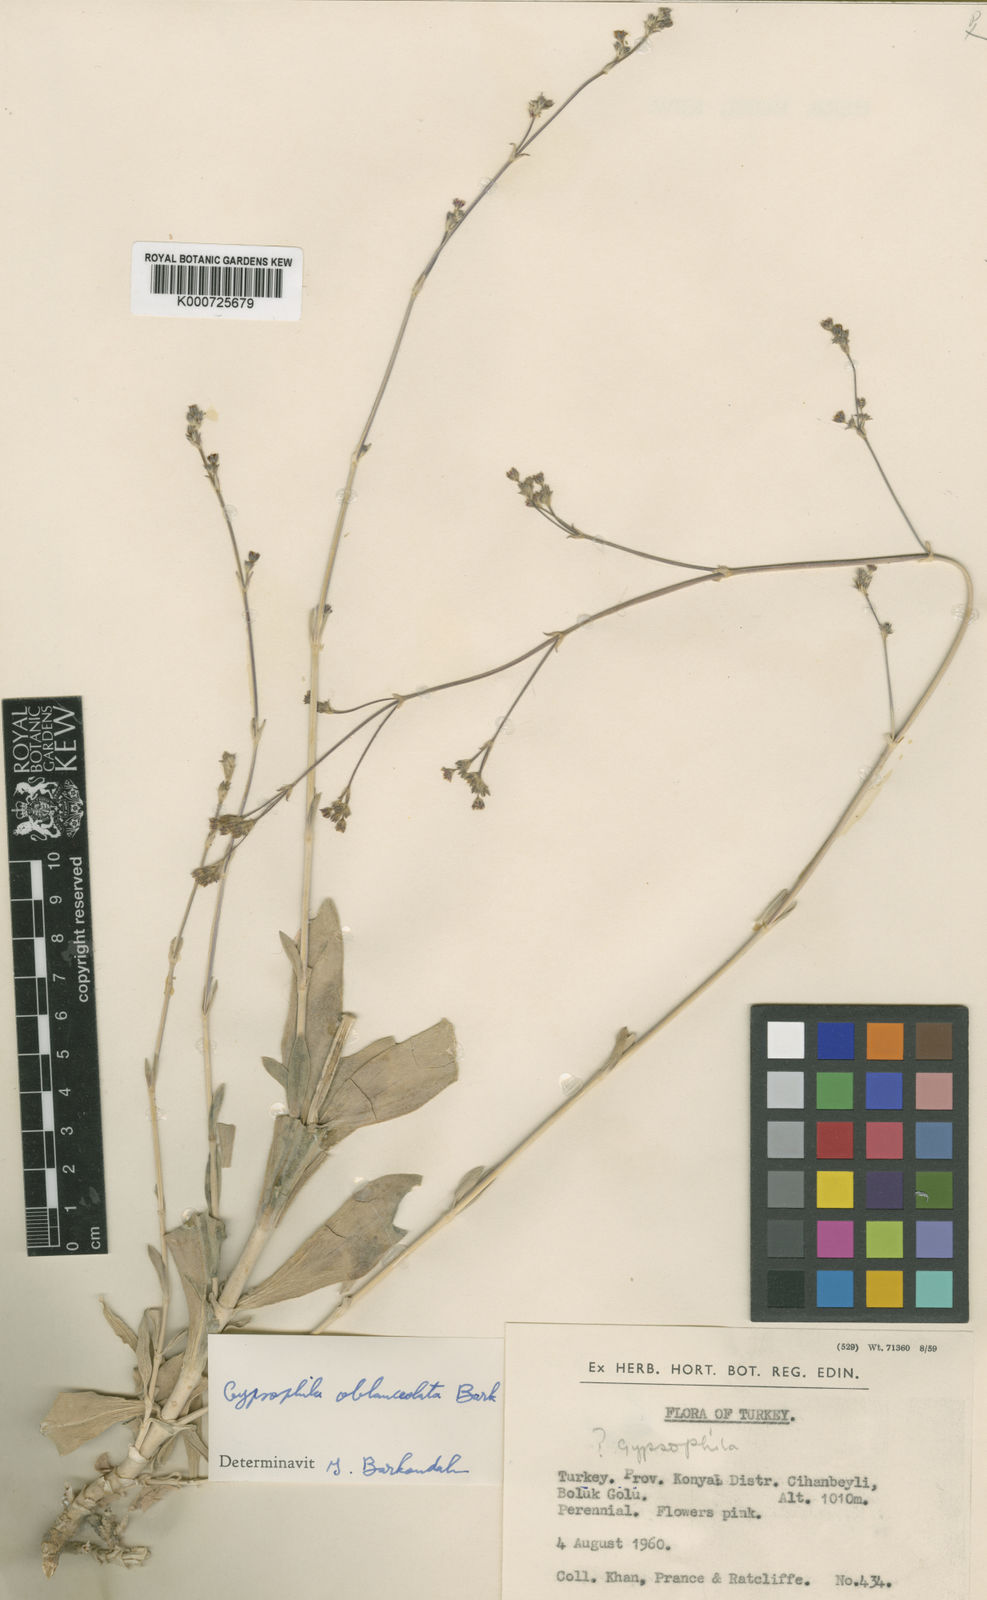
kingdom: Plantae
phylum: Tracheophyta
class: Magnoliopsida
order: Caryophyllales
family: Caryophyllaceae
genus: Gypsophila
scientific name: Gypsophila oblanceolata
